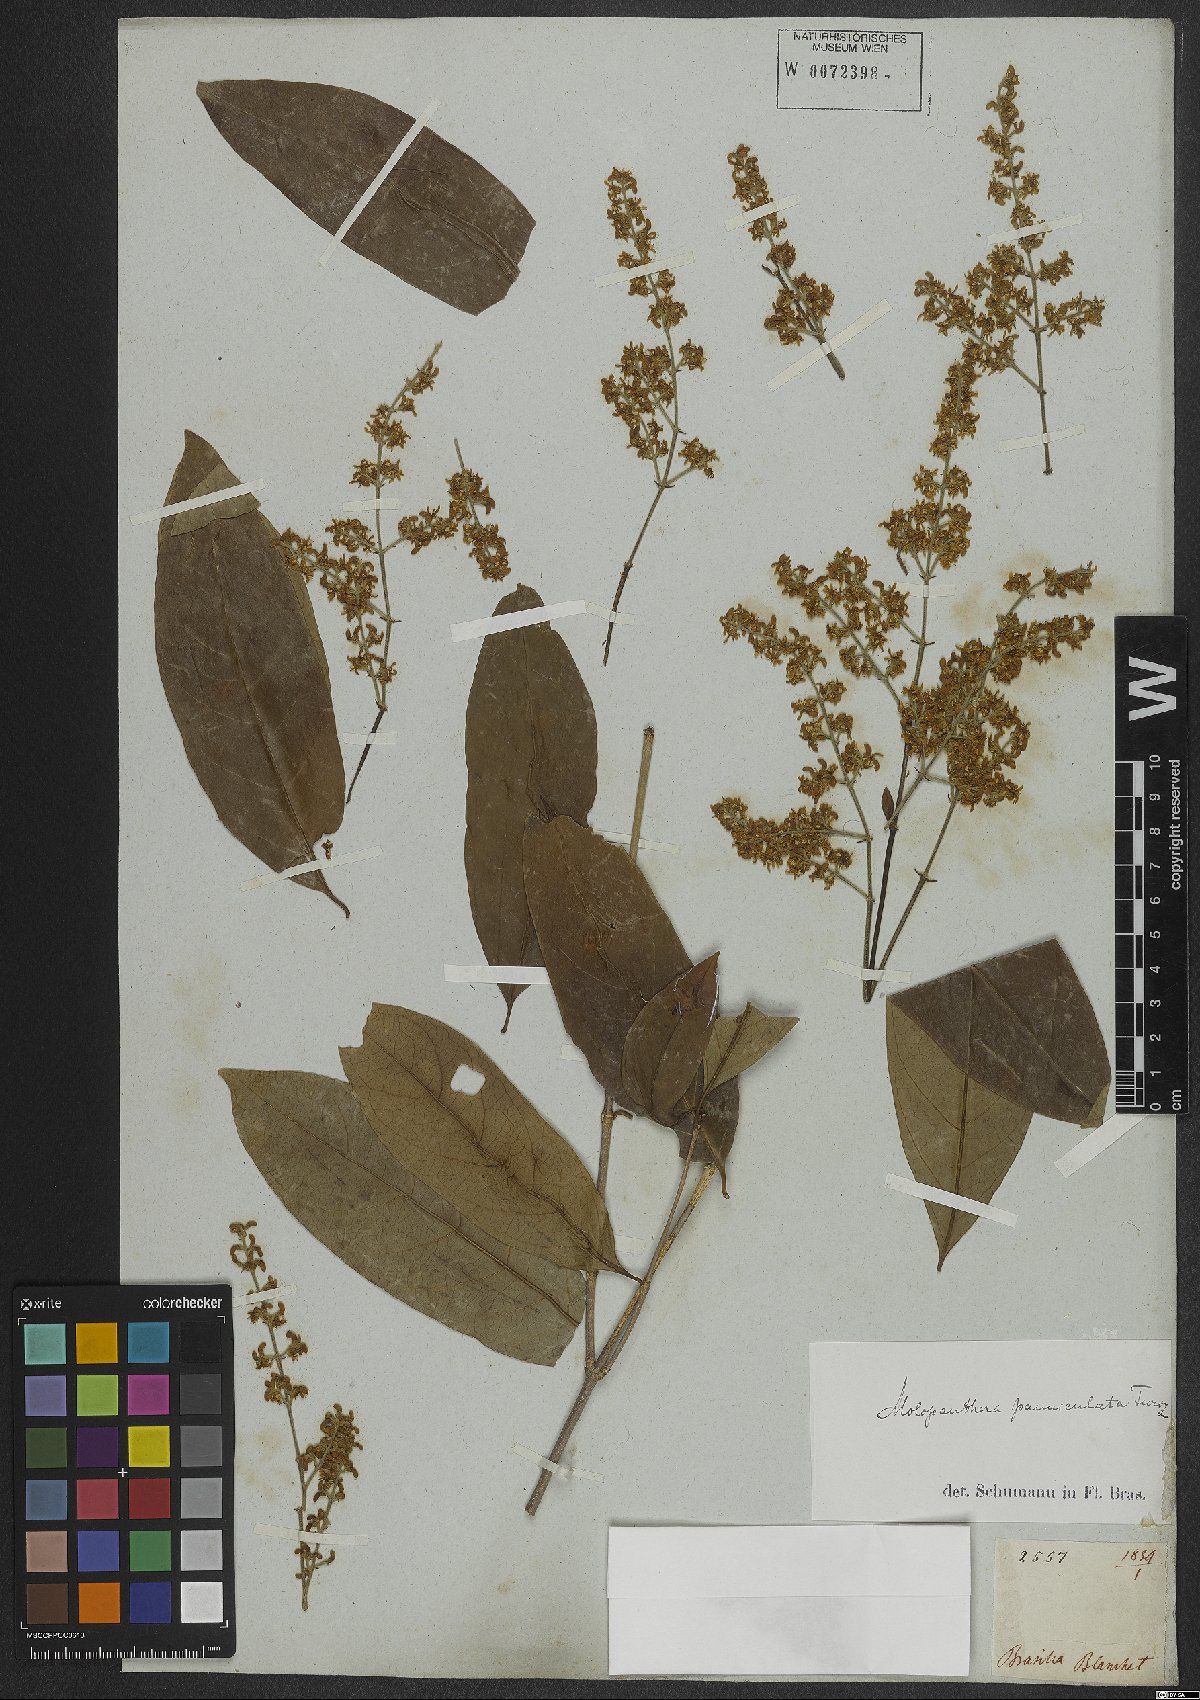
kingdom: Plantae
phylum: Tracheophyta
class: Magnoliopsida
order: Gentianales
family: Rubiaceae
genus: Molopanthera
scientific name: Molopanthera paniculata
